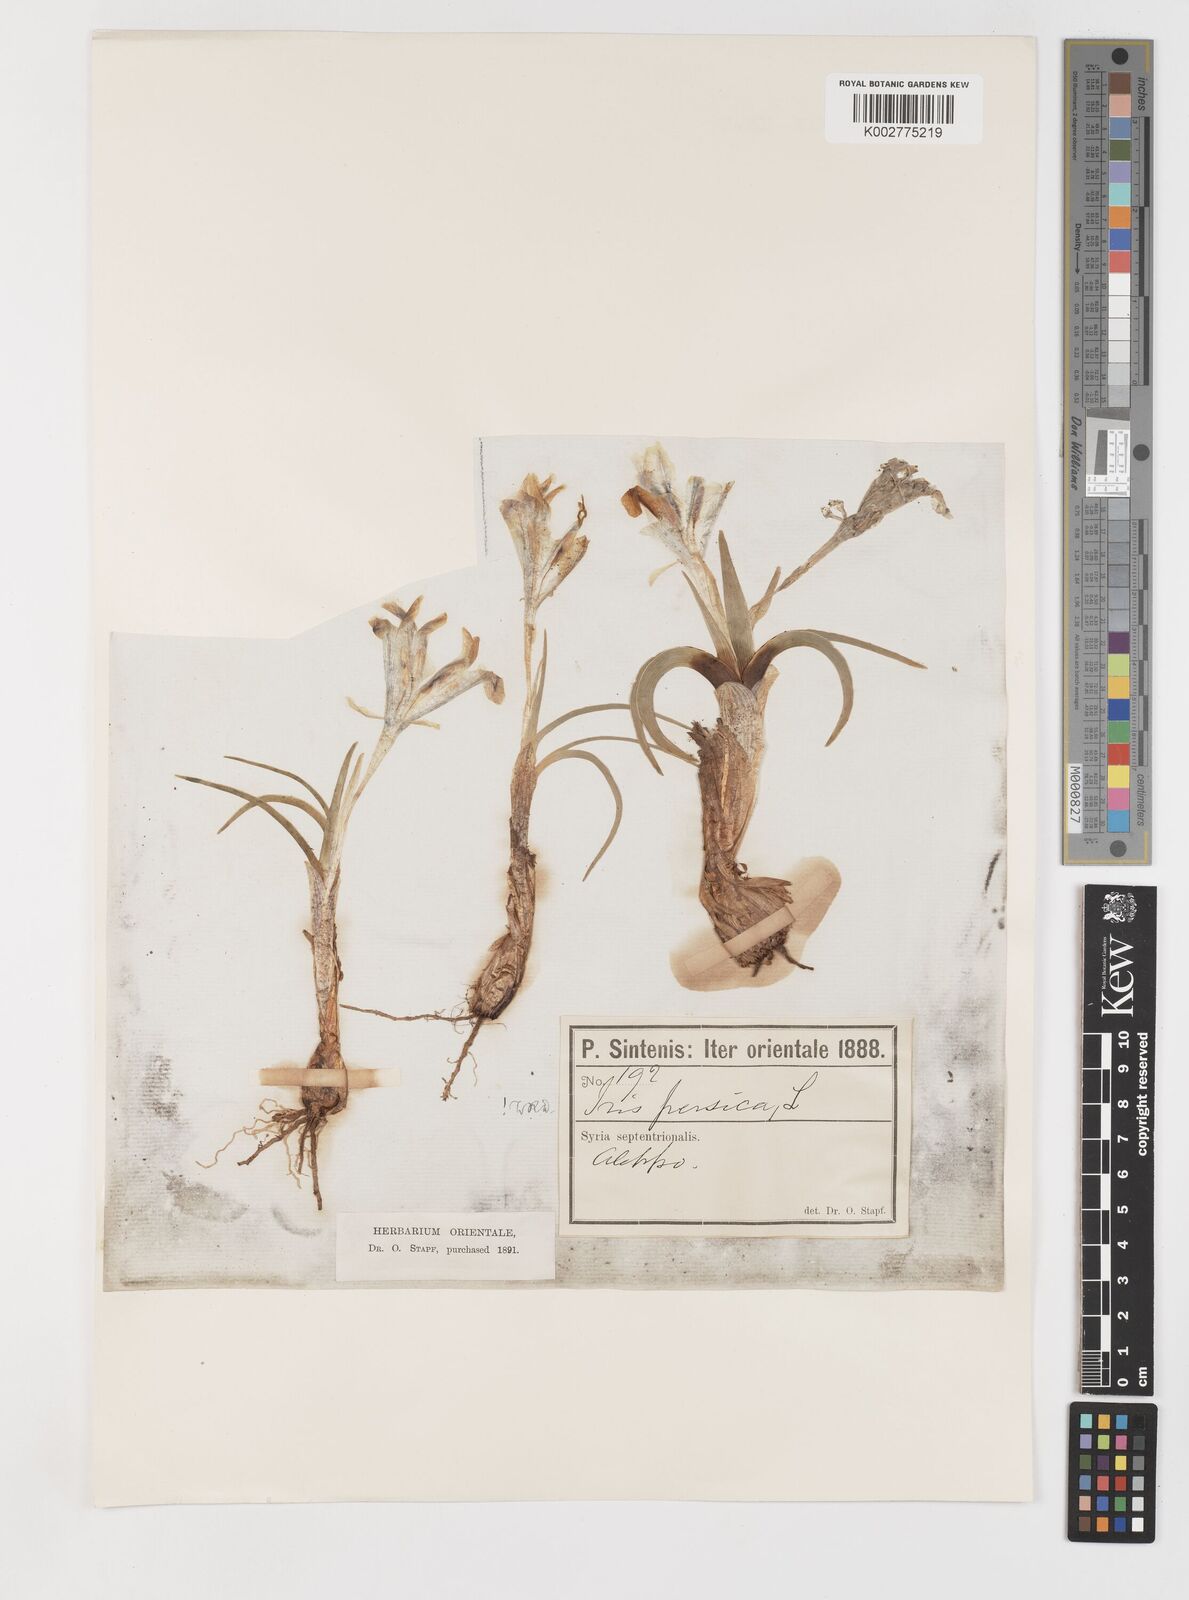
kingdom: Plantae
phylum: Tracheophyta
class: Liliopsida
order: Asparagales
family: Iridaceae
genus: Iris
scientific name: Iris persica
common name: Persian iris
